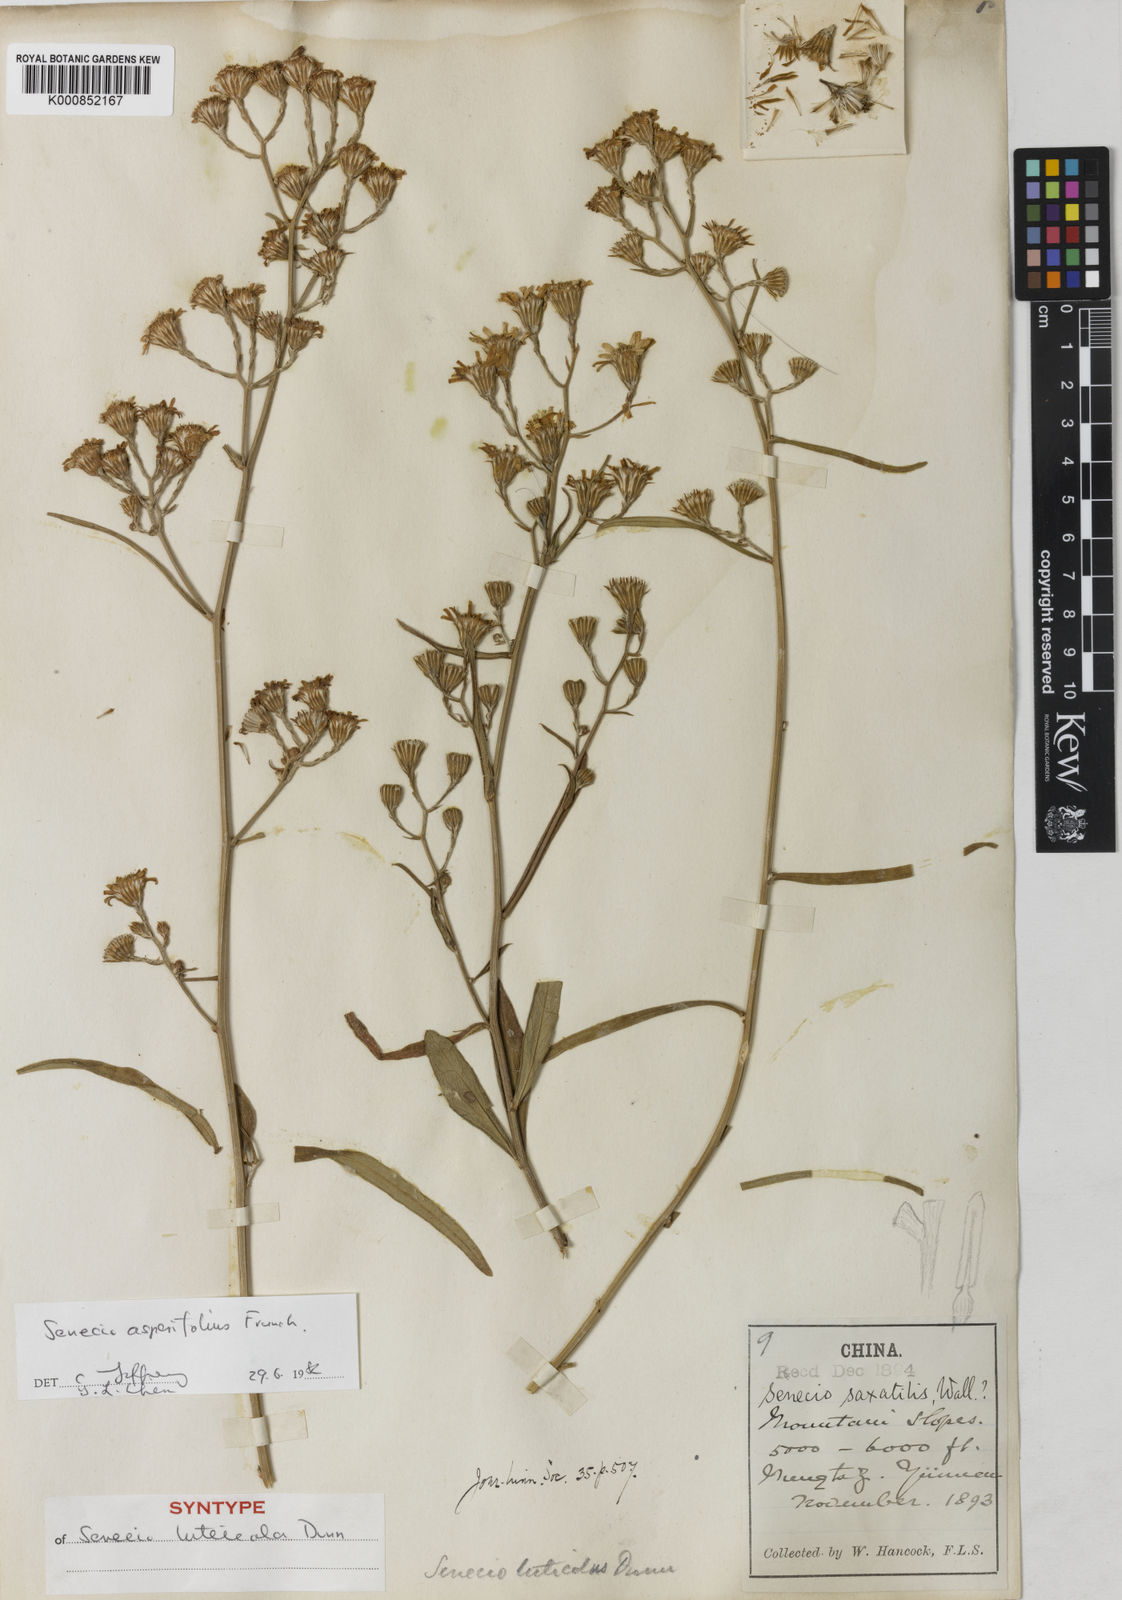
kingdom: Plantae
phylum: Tracheophyta
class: Magnoliopsida
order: Asterales
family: Asteraceae
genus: Senecio
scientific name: Senecio asperifolius
